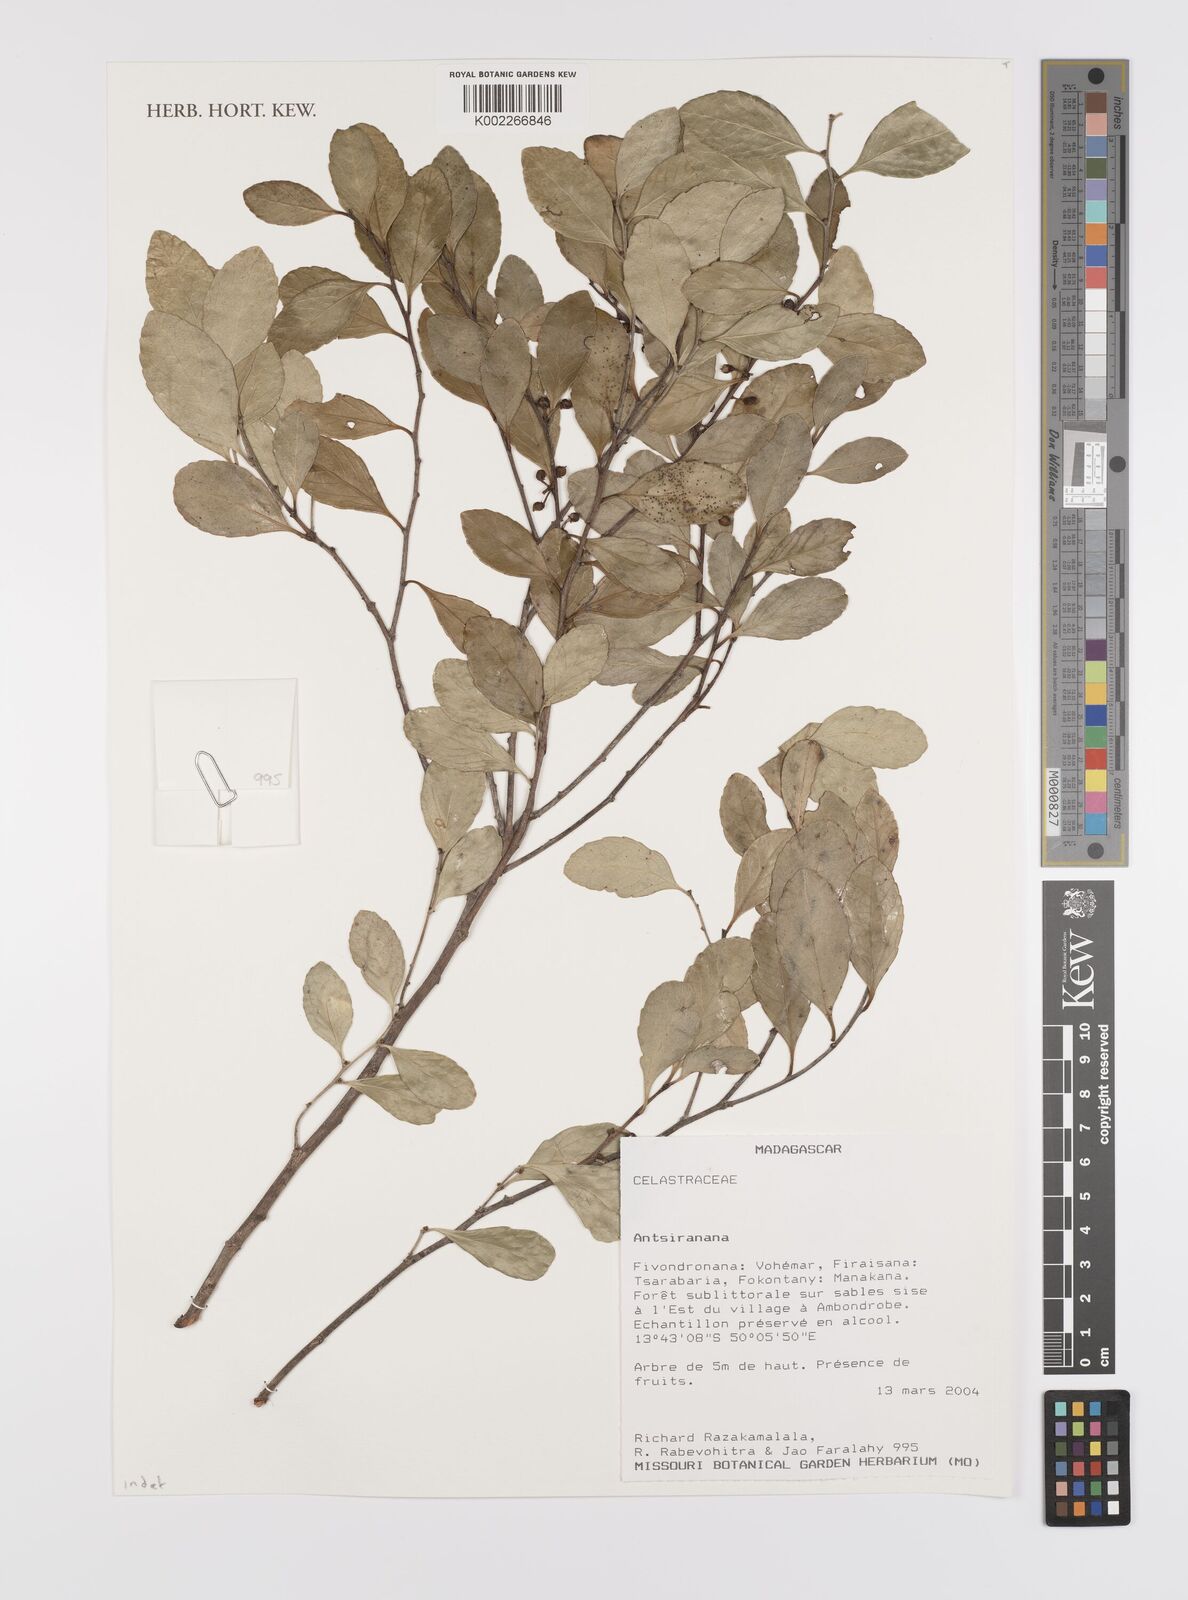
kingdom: Plantae
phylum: Tracheophyta
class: Magnoliopsida
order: Celastrales
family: Celastraceae
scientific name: Celastraceae
